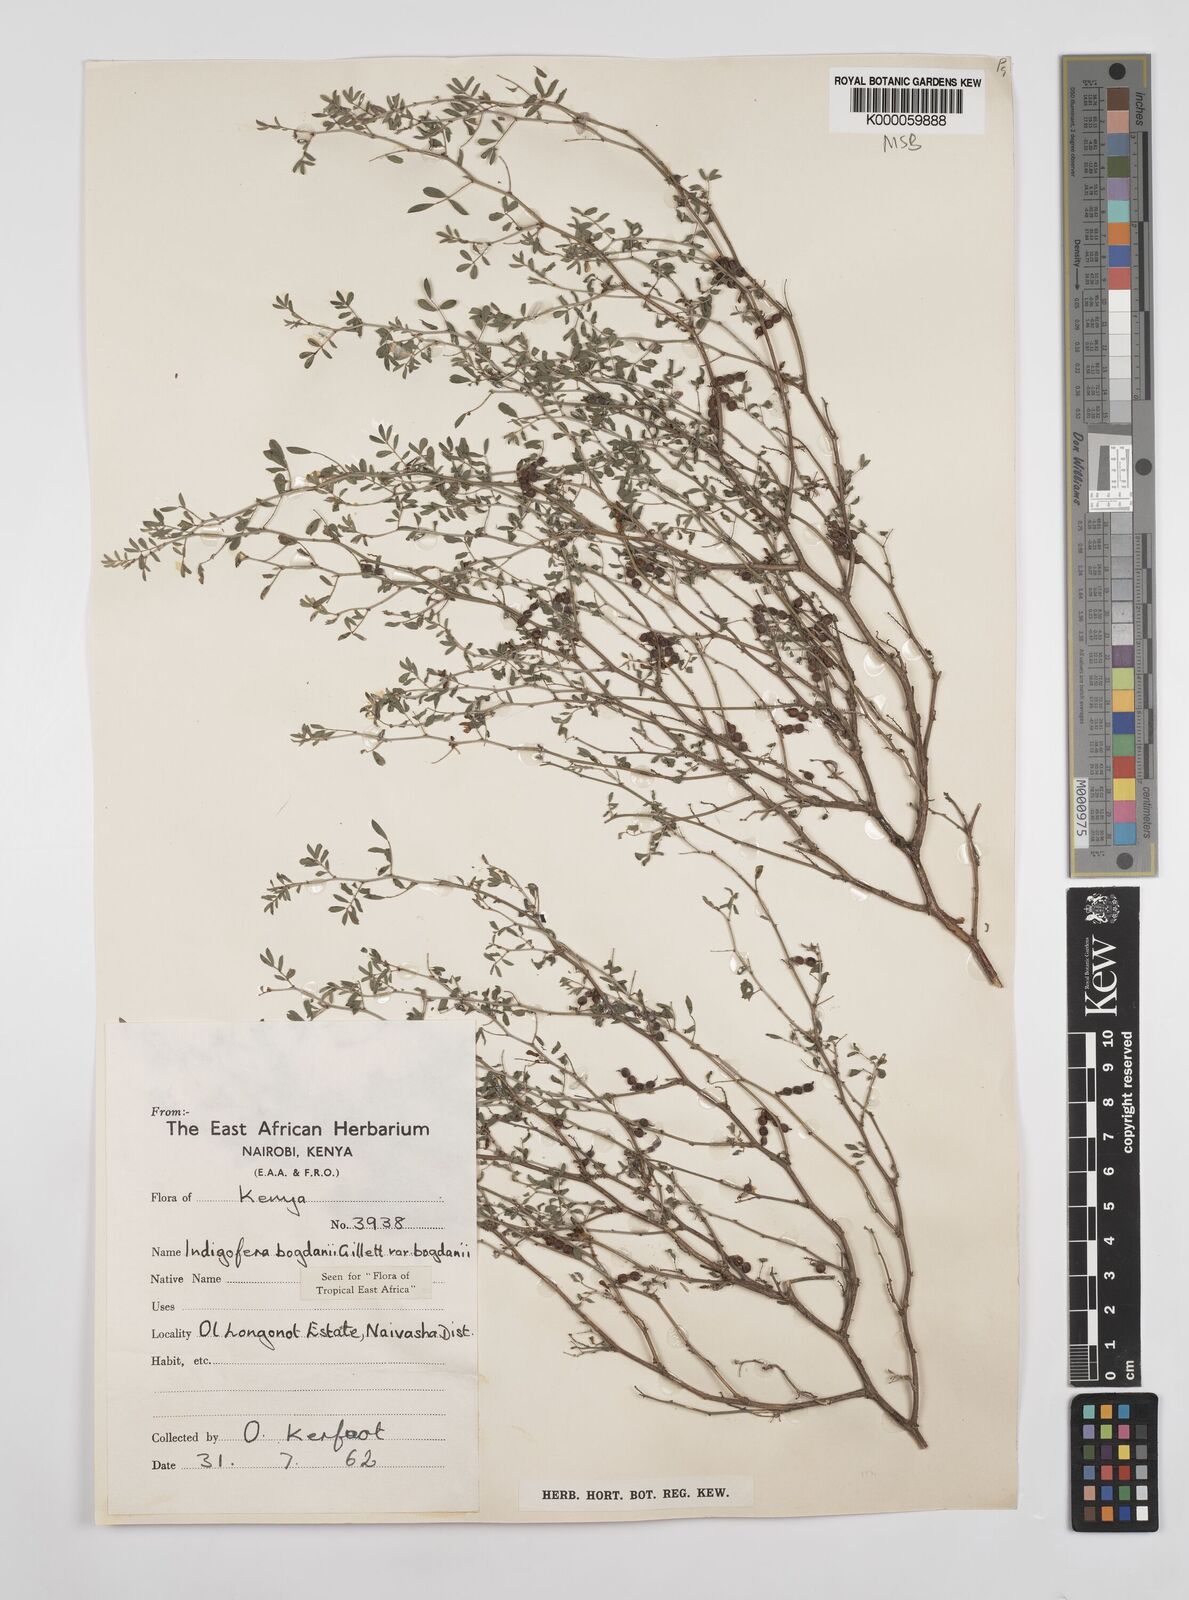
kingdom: Plantae
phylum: Tracheophyta
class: Magnoliopsida
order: Fabales
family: Fabaceae
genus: Indigofera
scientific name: Indigofera bogdanii
